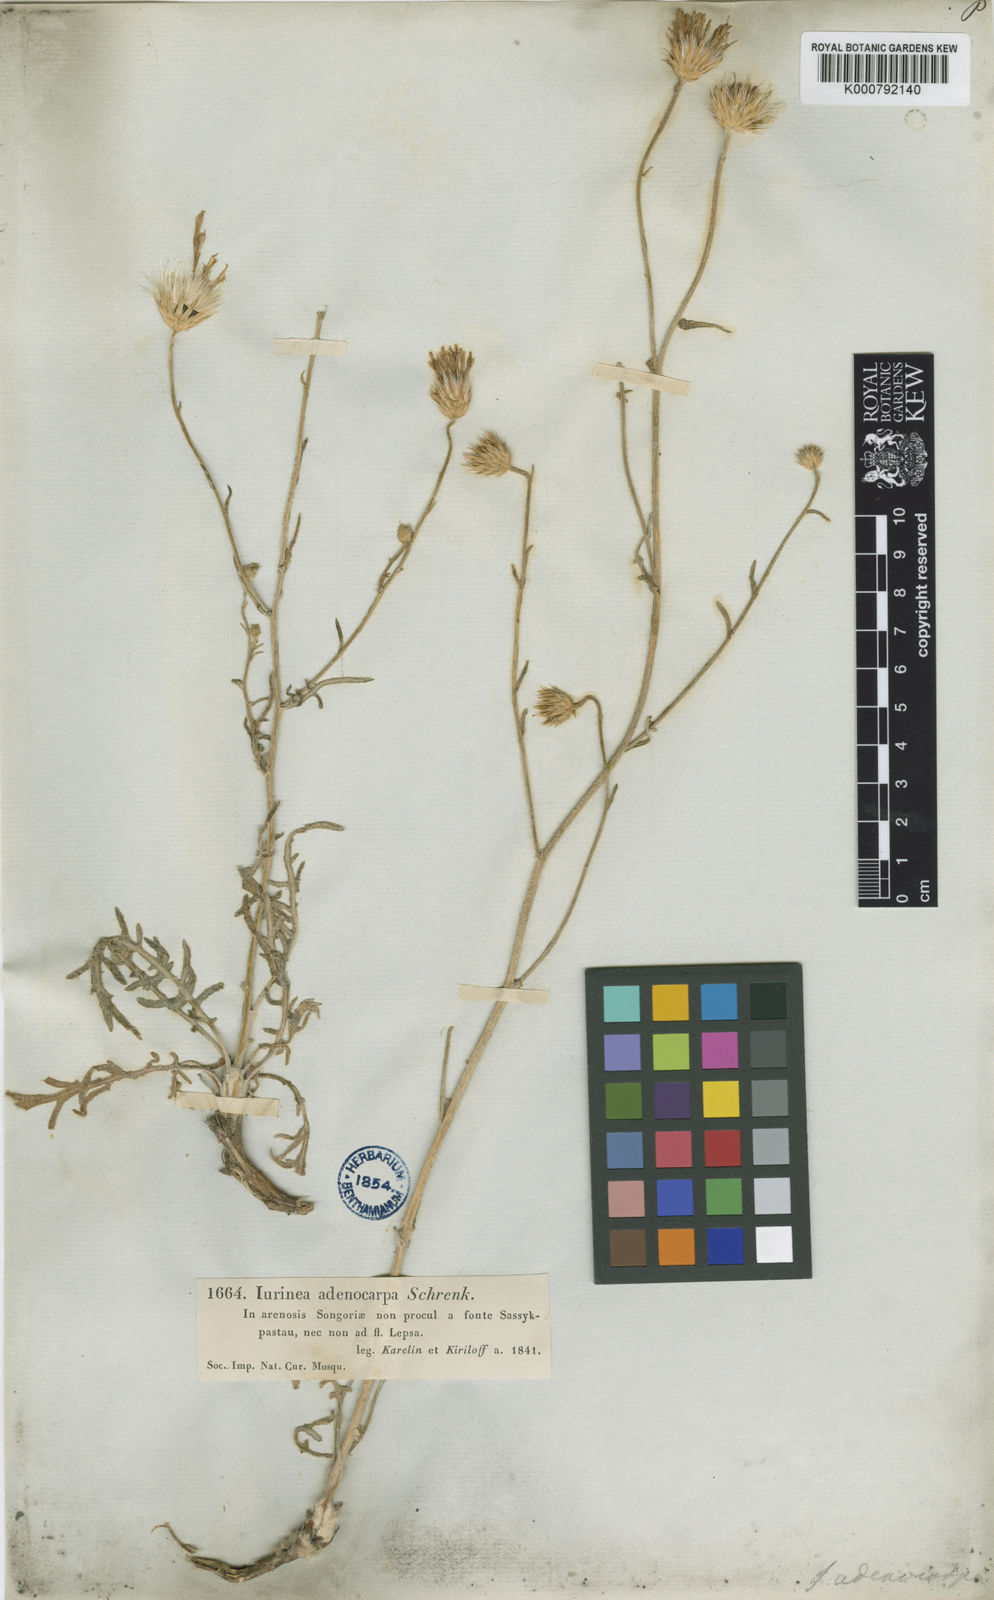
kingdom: Plantae
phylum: Tracheophyta
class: Magnoliopsida
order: Asterales
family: Asteraceae
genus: Jurinea
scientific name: Jurinea adenocarpa
